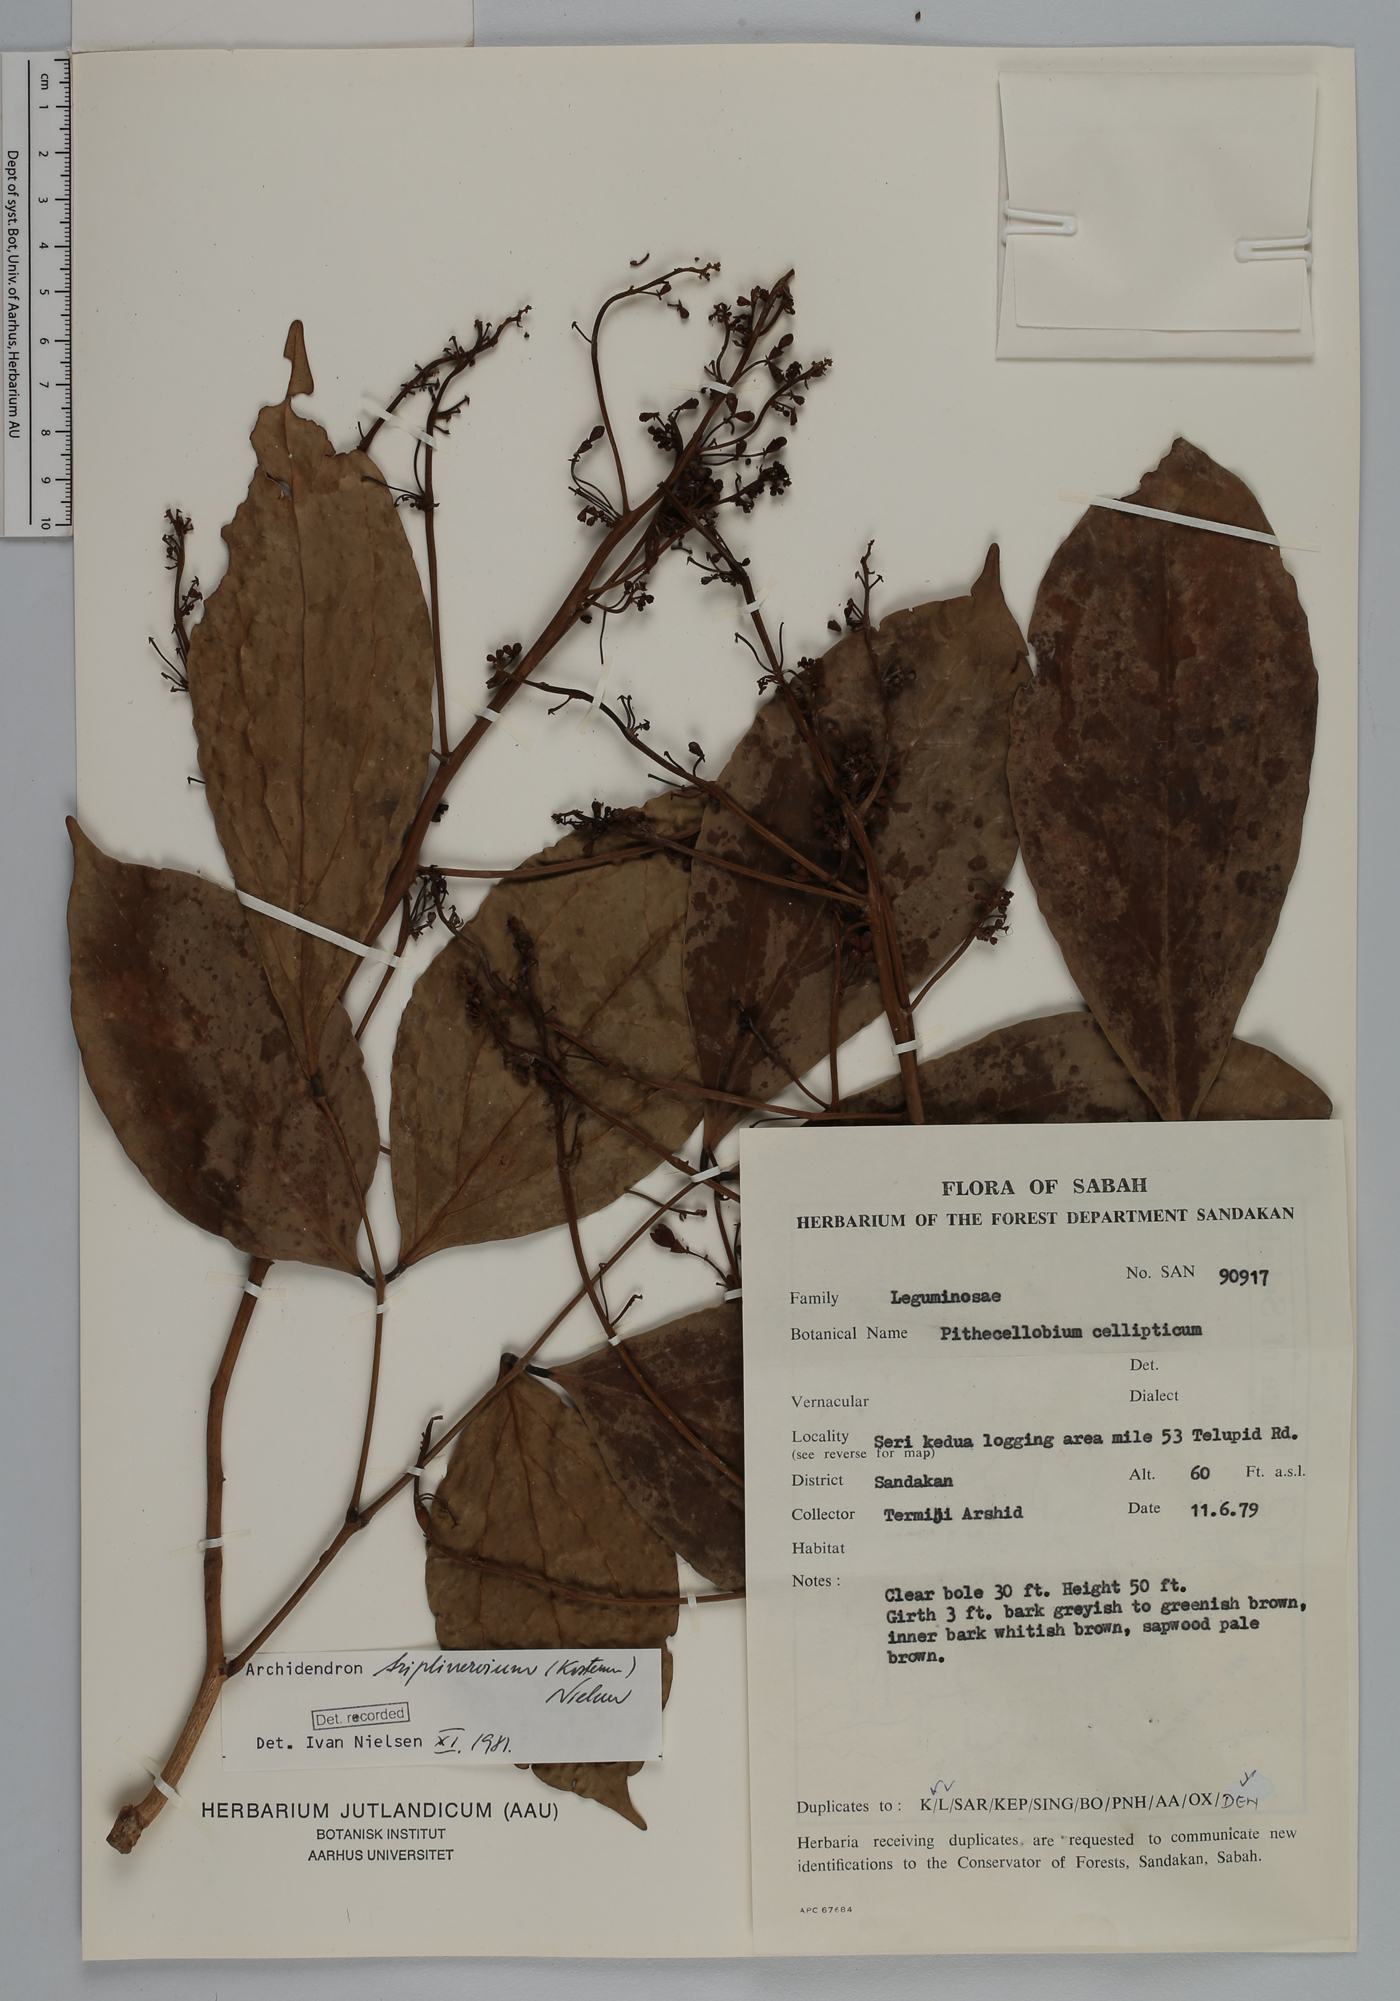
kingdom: Plantae
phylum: Tracheophyta
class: Magnoliopsida
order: Fabales
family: Fabaceae
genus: Archidendron
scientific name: Archidendron triplinervium
